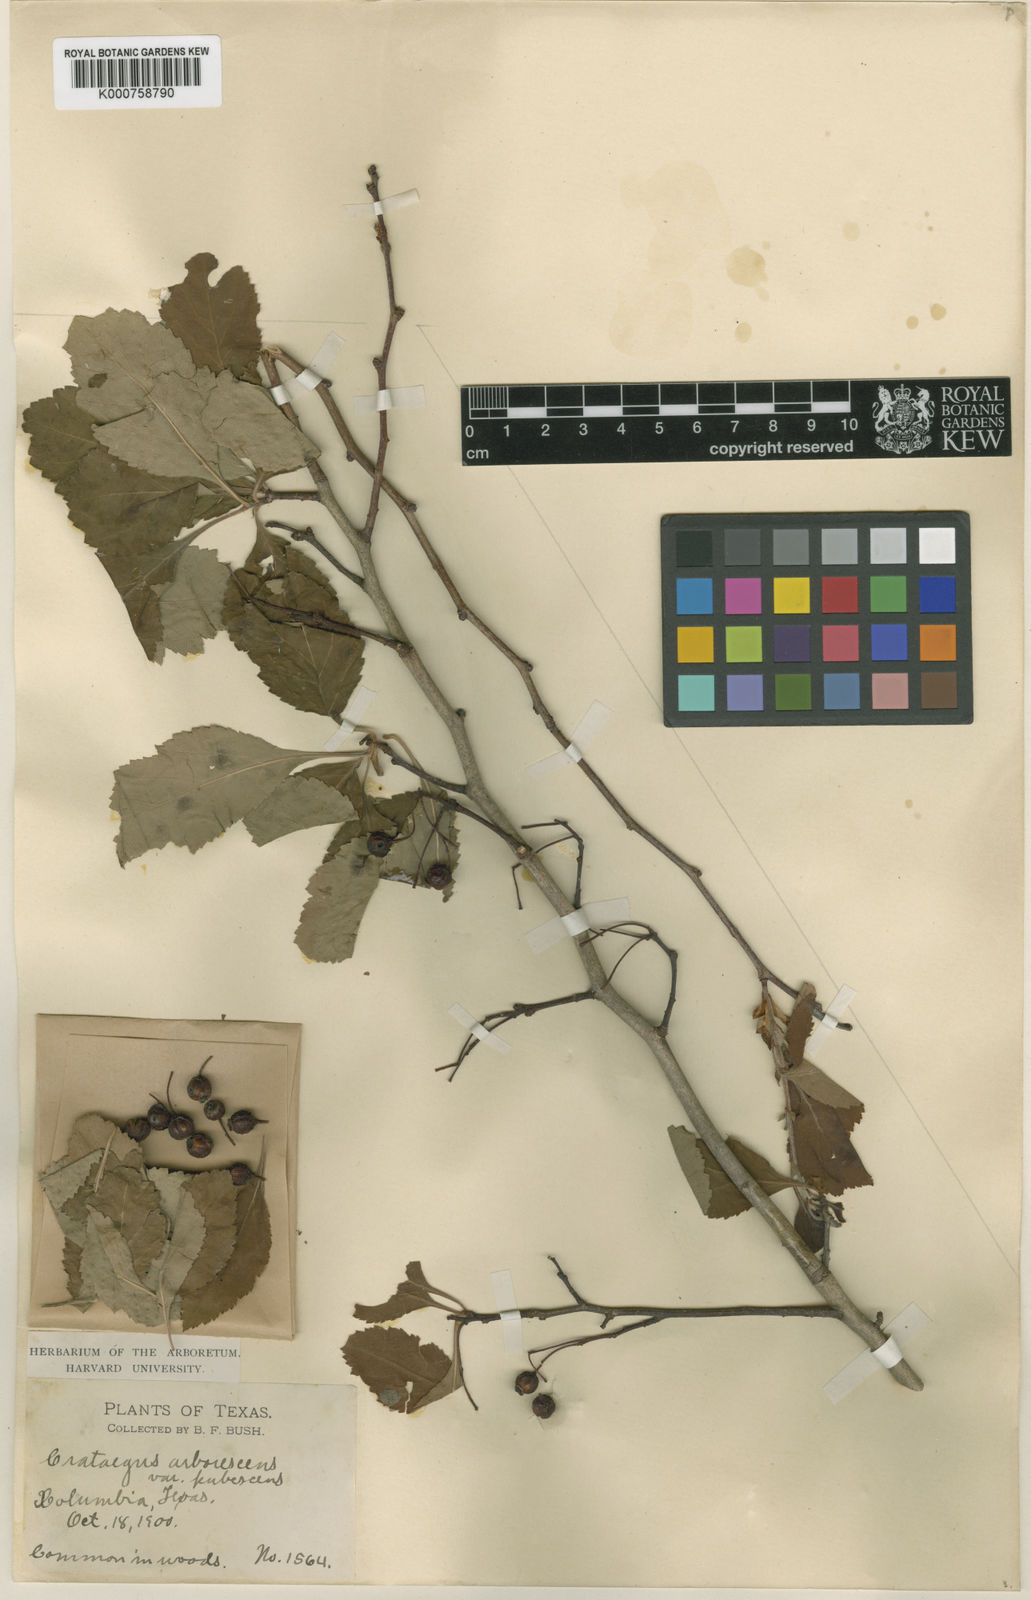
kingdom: Plantae
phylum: Tracheophyta
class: Magnoliopsida
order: Rosales
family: Rosaceae
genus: Crataegus
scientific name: Crataegus viridis
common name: Southernthorn
